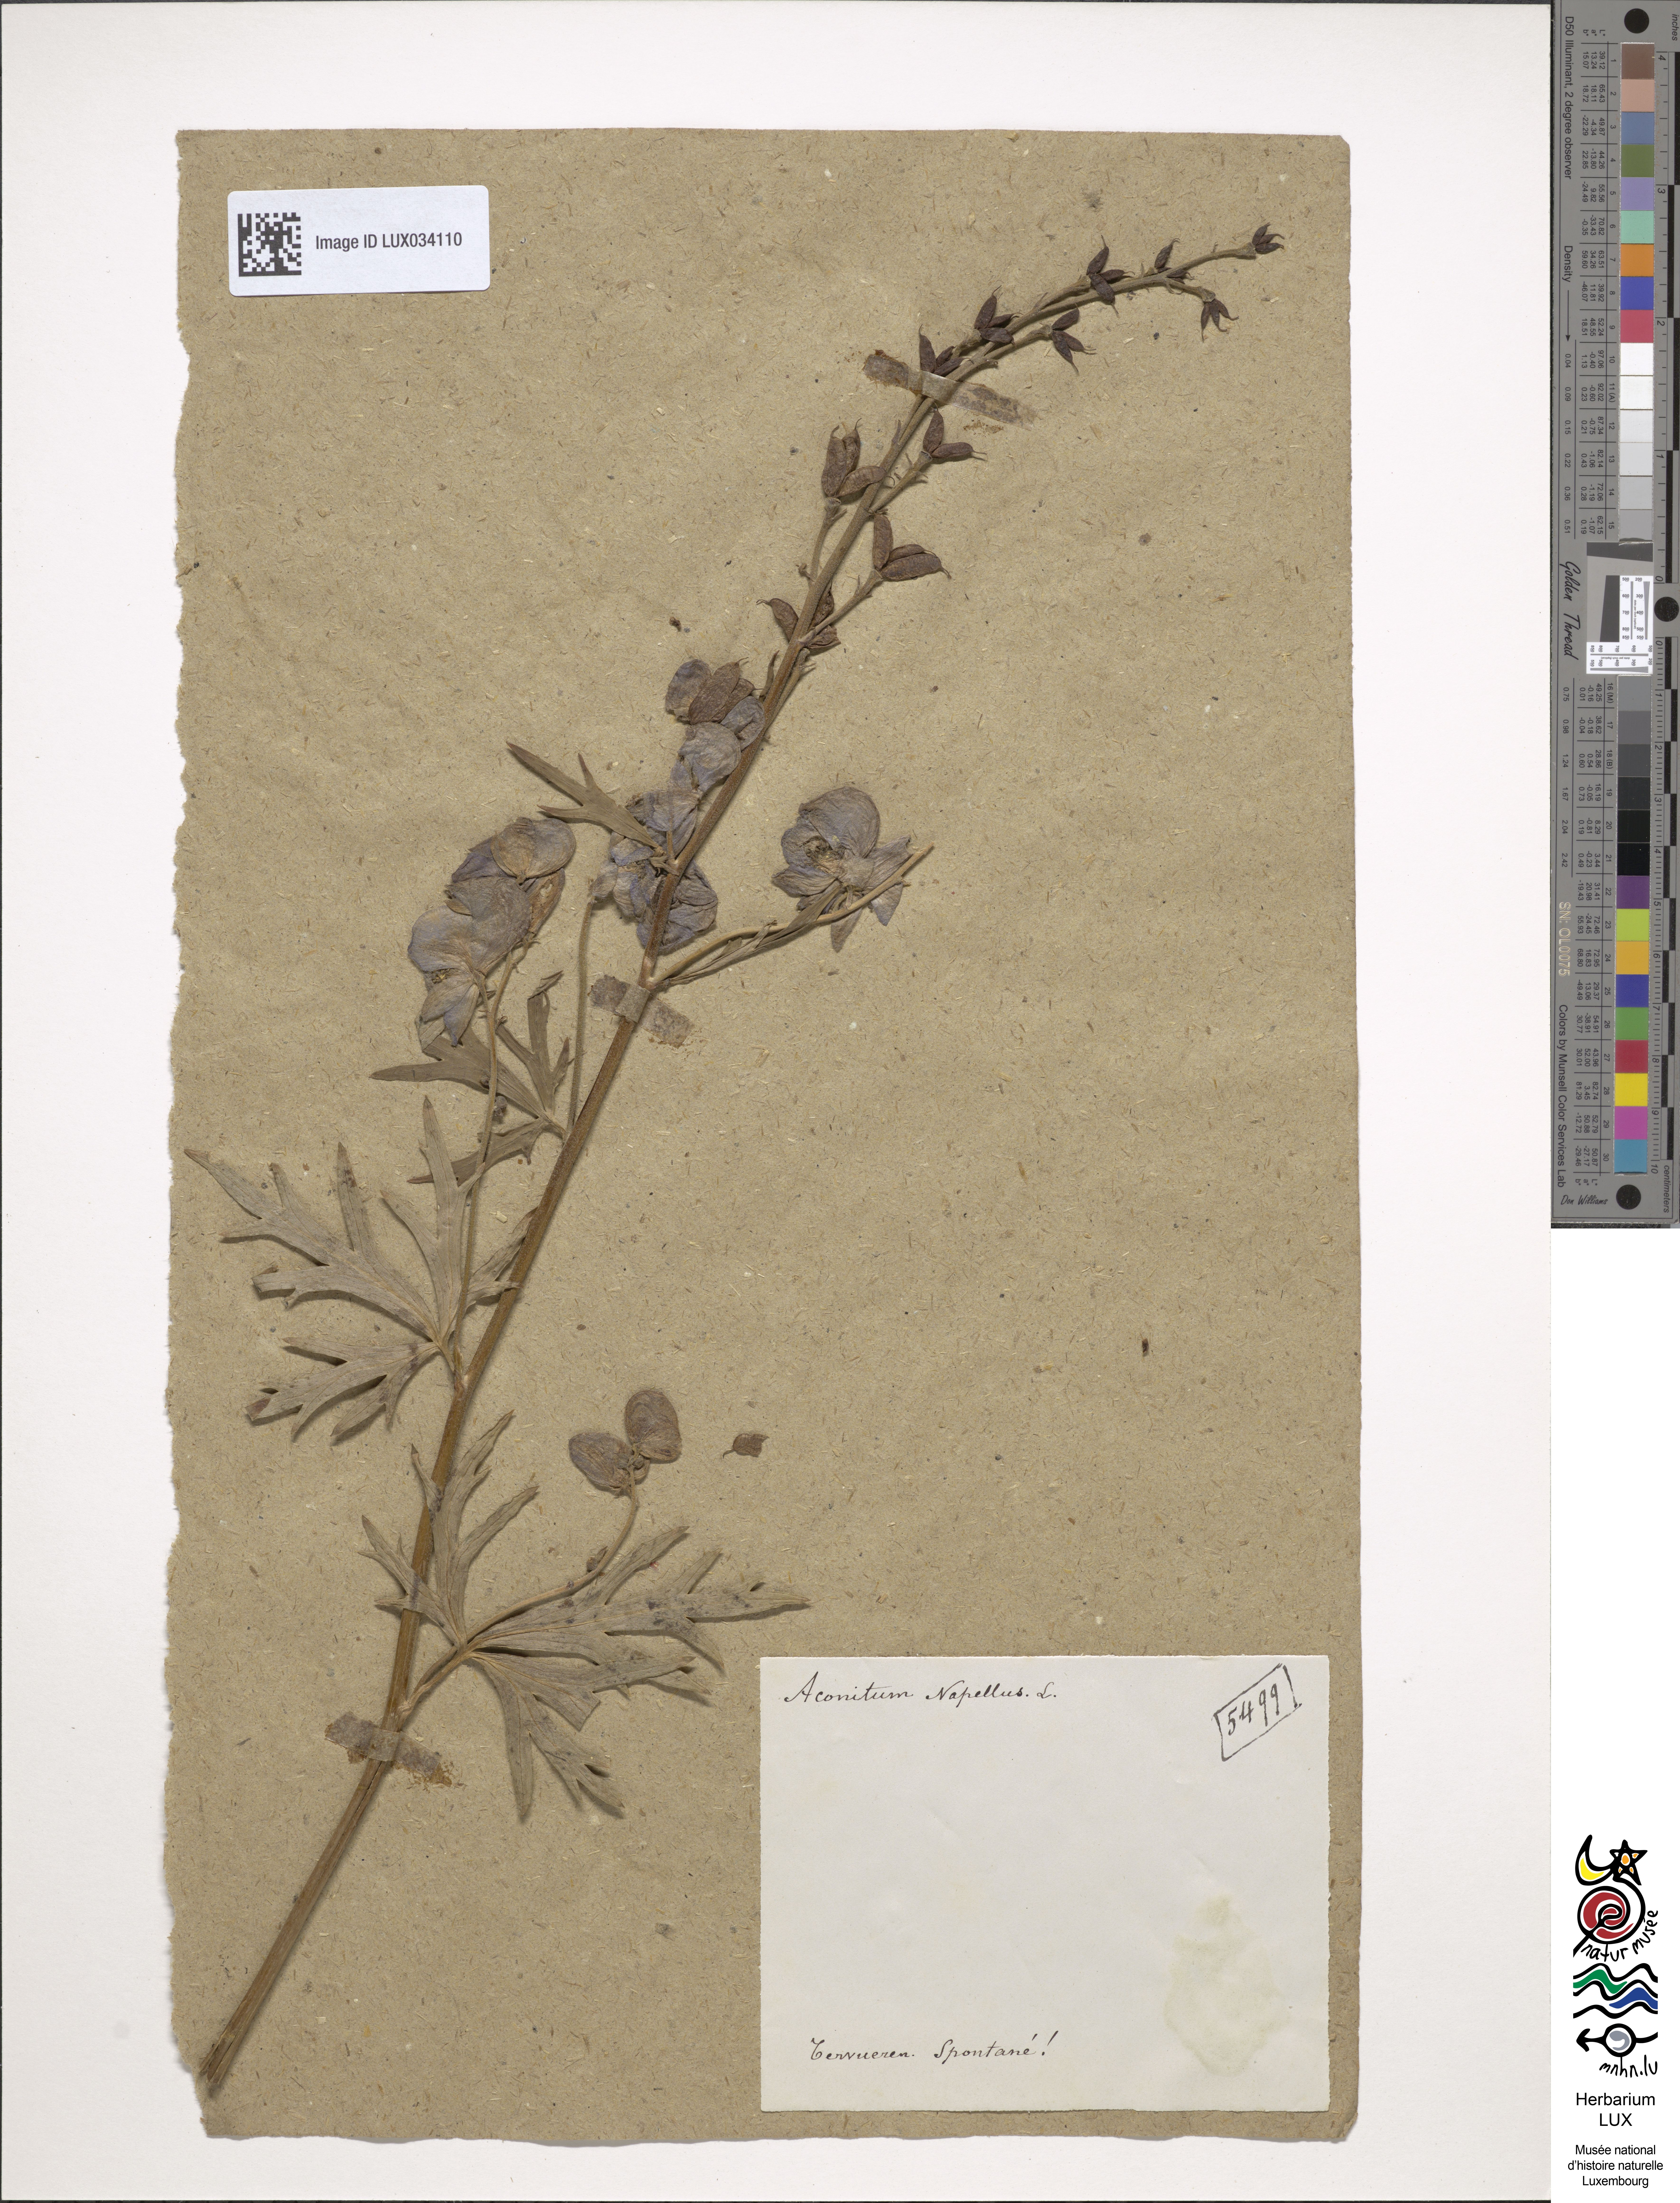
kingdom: Plantae
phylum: Tracheophyta
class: Magnoliopsida
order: Ranunculales
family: Ranunculaceae
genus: Aconitum
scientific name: Aconitum napellus
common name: Garden monkshood
